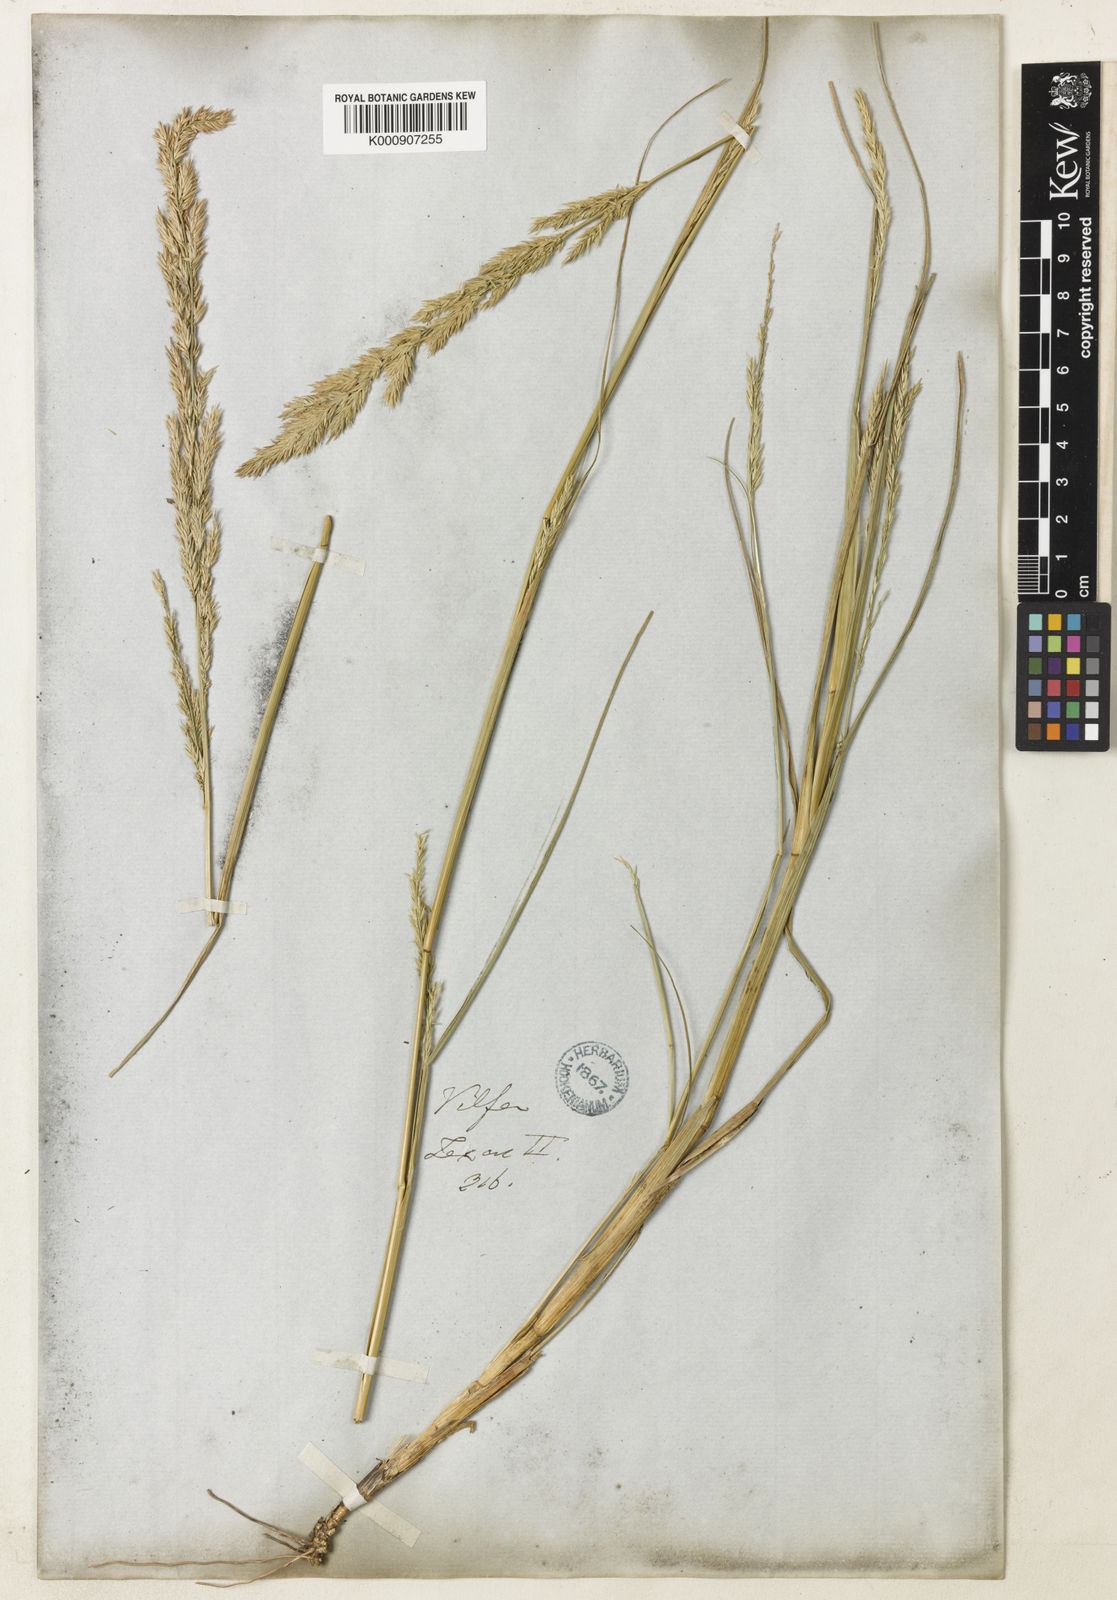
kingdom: Plantae
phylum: Tracheophyta
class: Liliopsida
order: Poales
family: Poaceae
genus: Sporobolus
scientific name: Sporobolus compositus
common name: Rough dropseed
